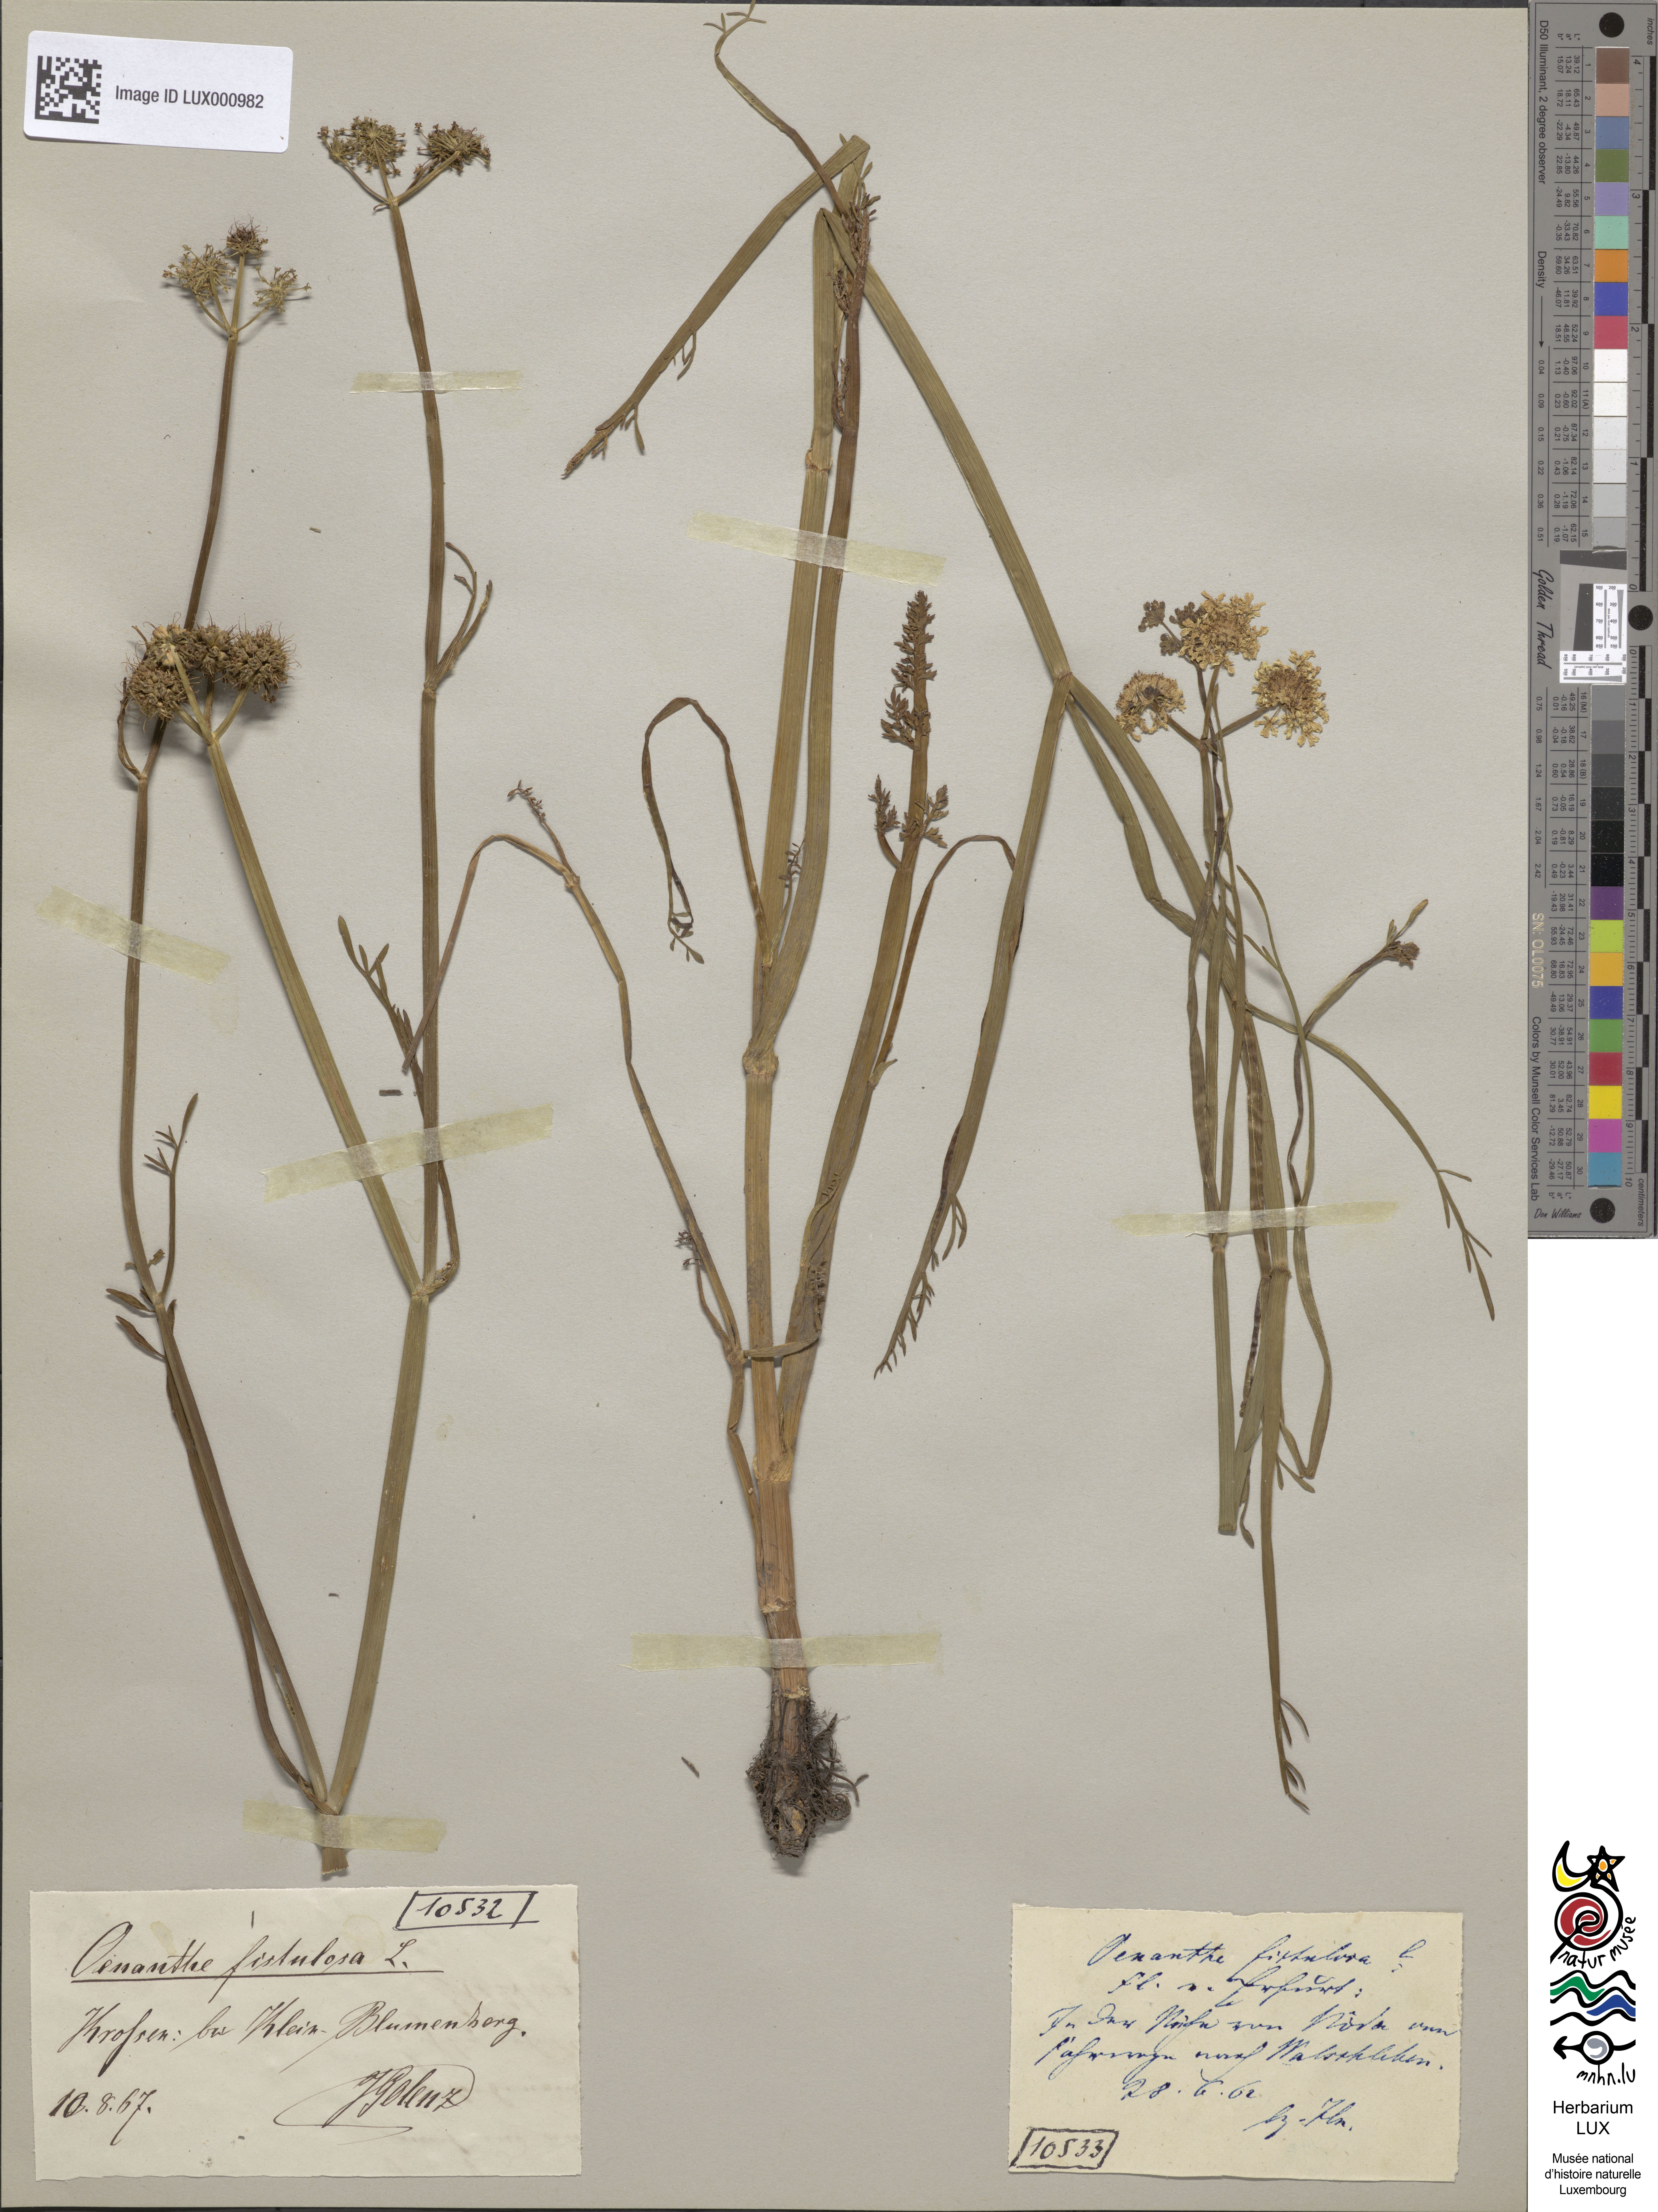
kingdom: Plantae
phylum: Tracheophyta
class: Magnoliopsida
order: Apiales
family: Apiaceae
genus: Oenanthe
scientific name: Oenanthe fistulosa
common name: Tubular water-dropwort
